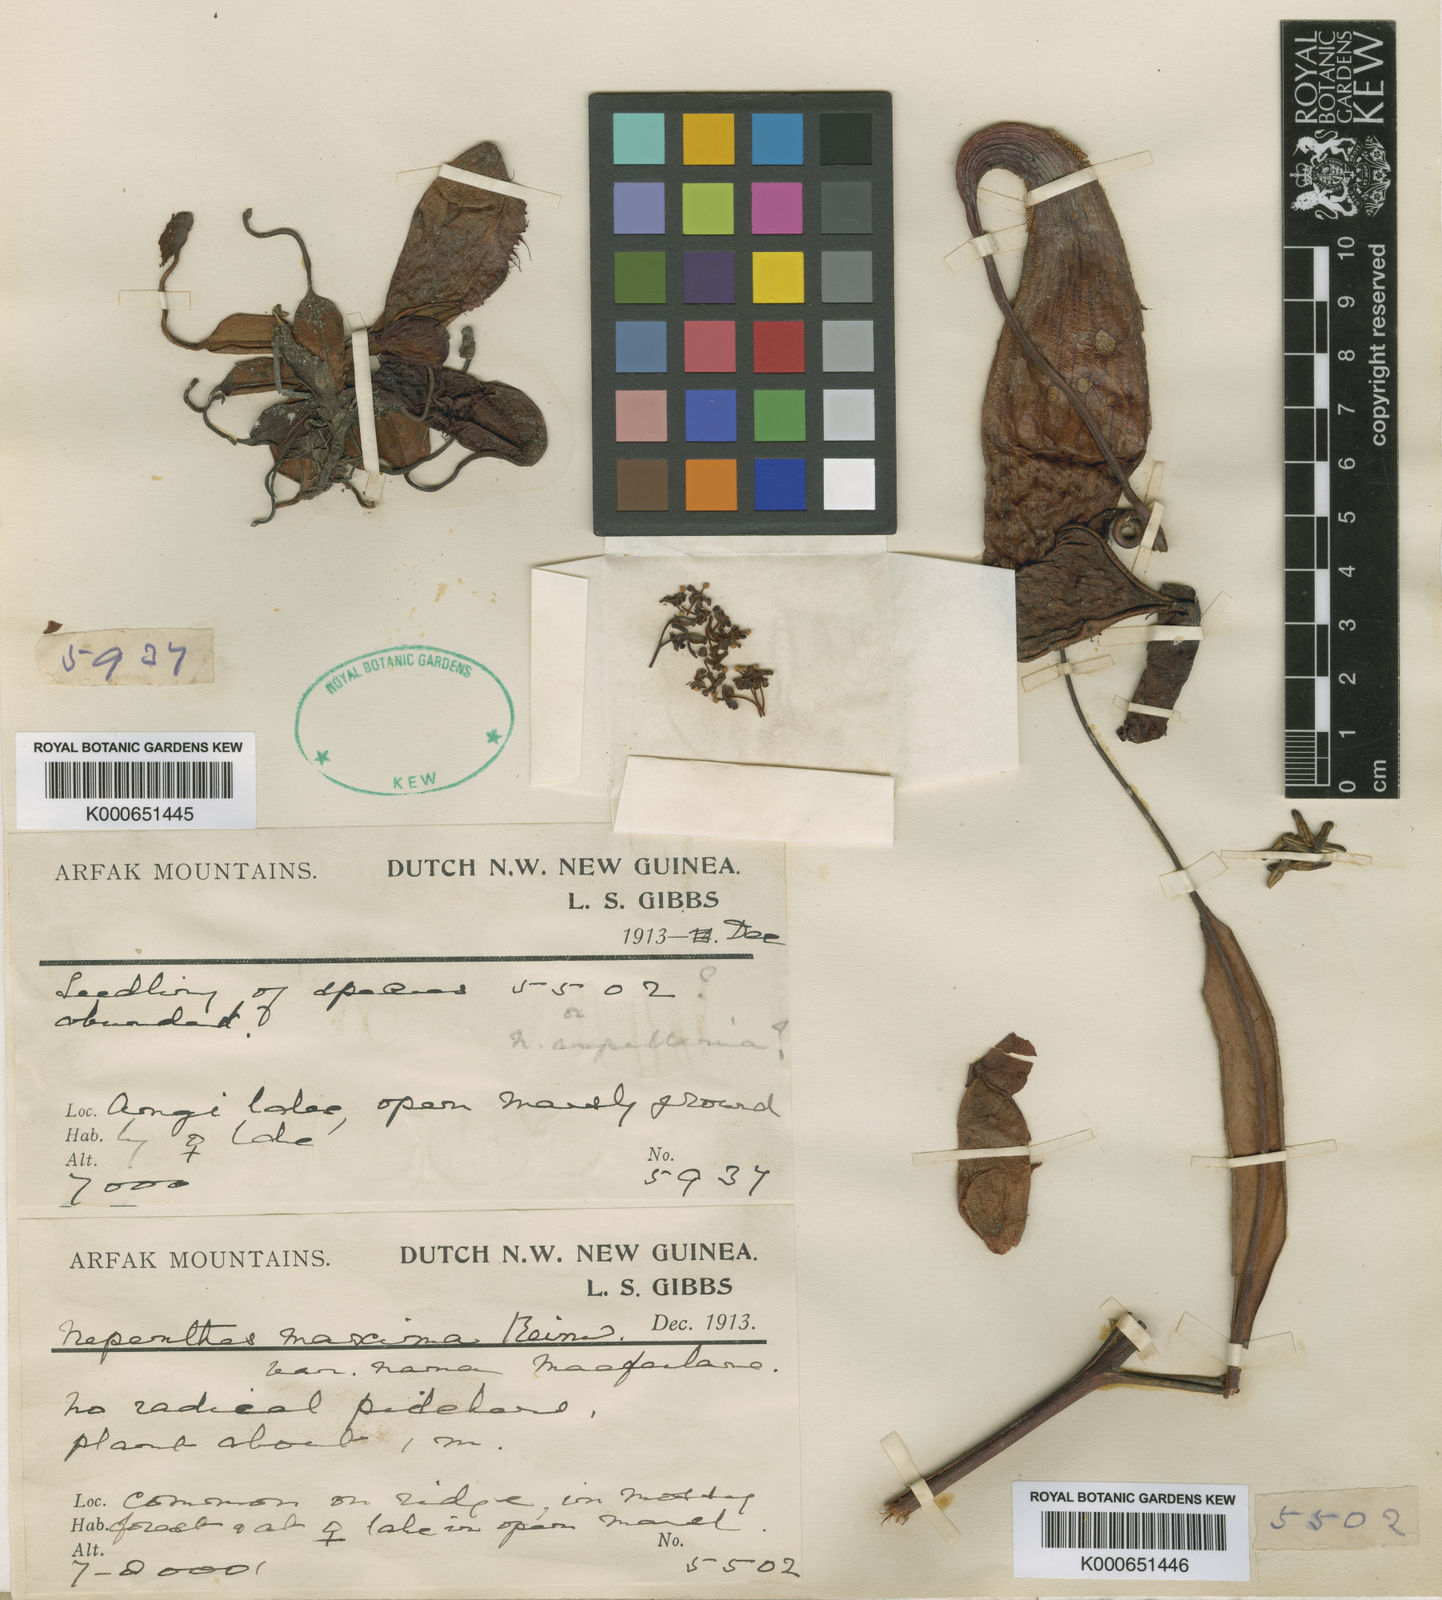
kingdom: Plantae
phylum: Tracheophyta
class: Magnoliopsida
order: Caryophyllales
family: Nepenthaceae
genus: Nepenthes
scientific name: Nepenthes maxima
